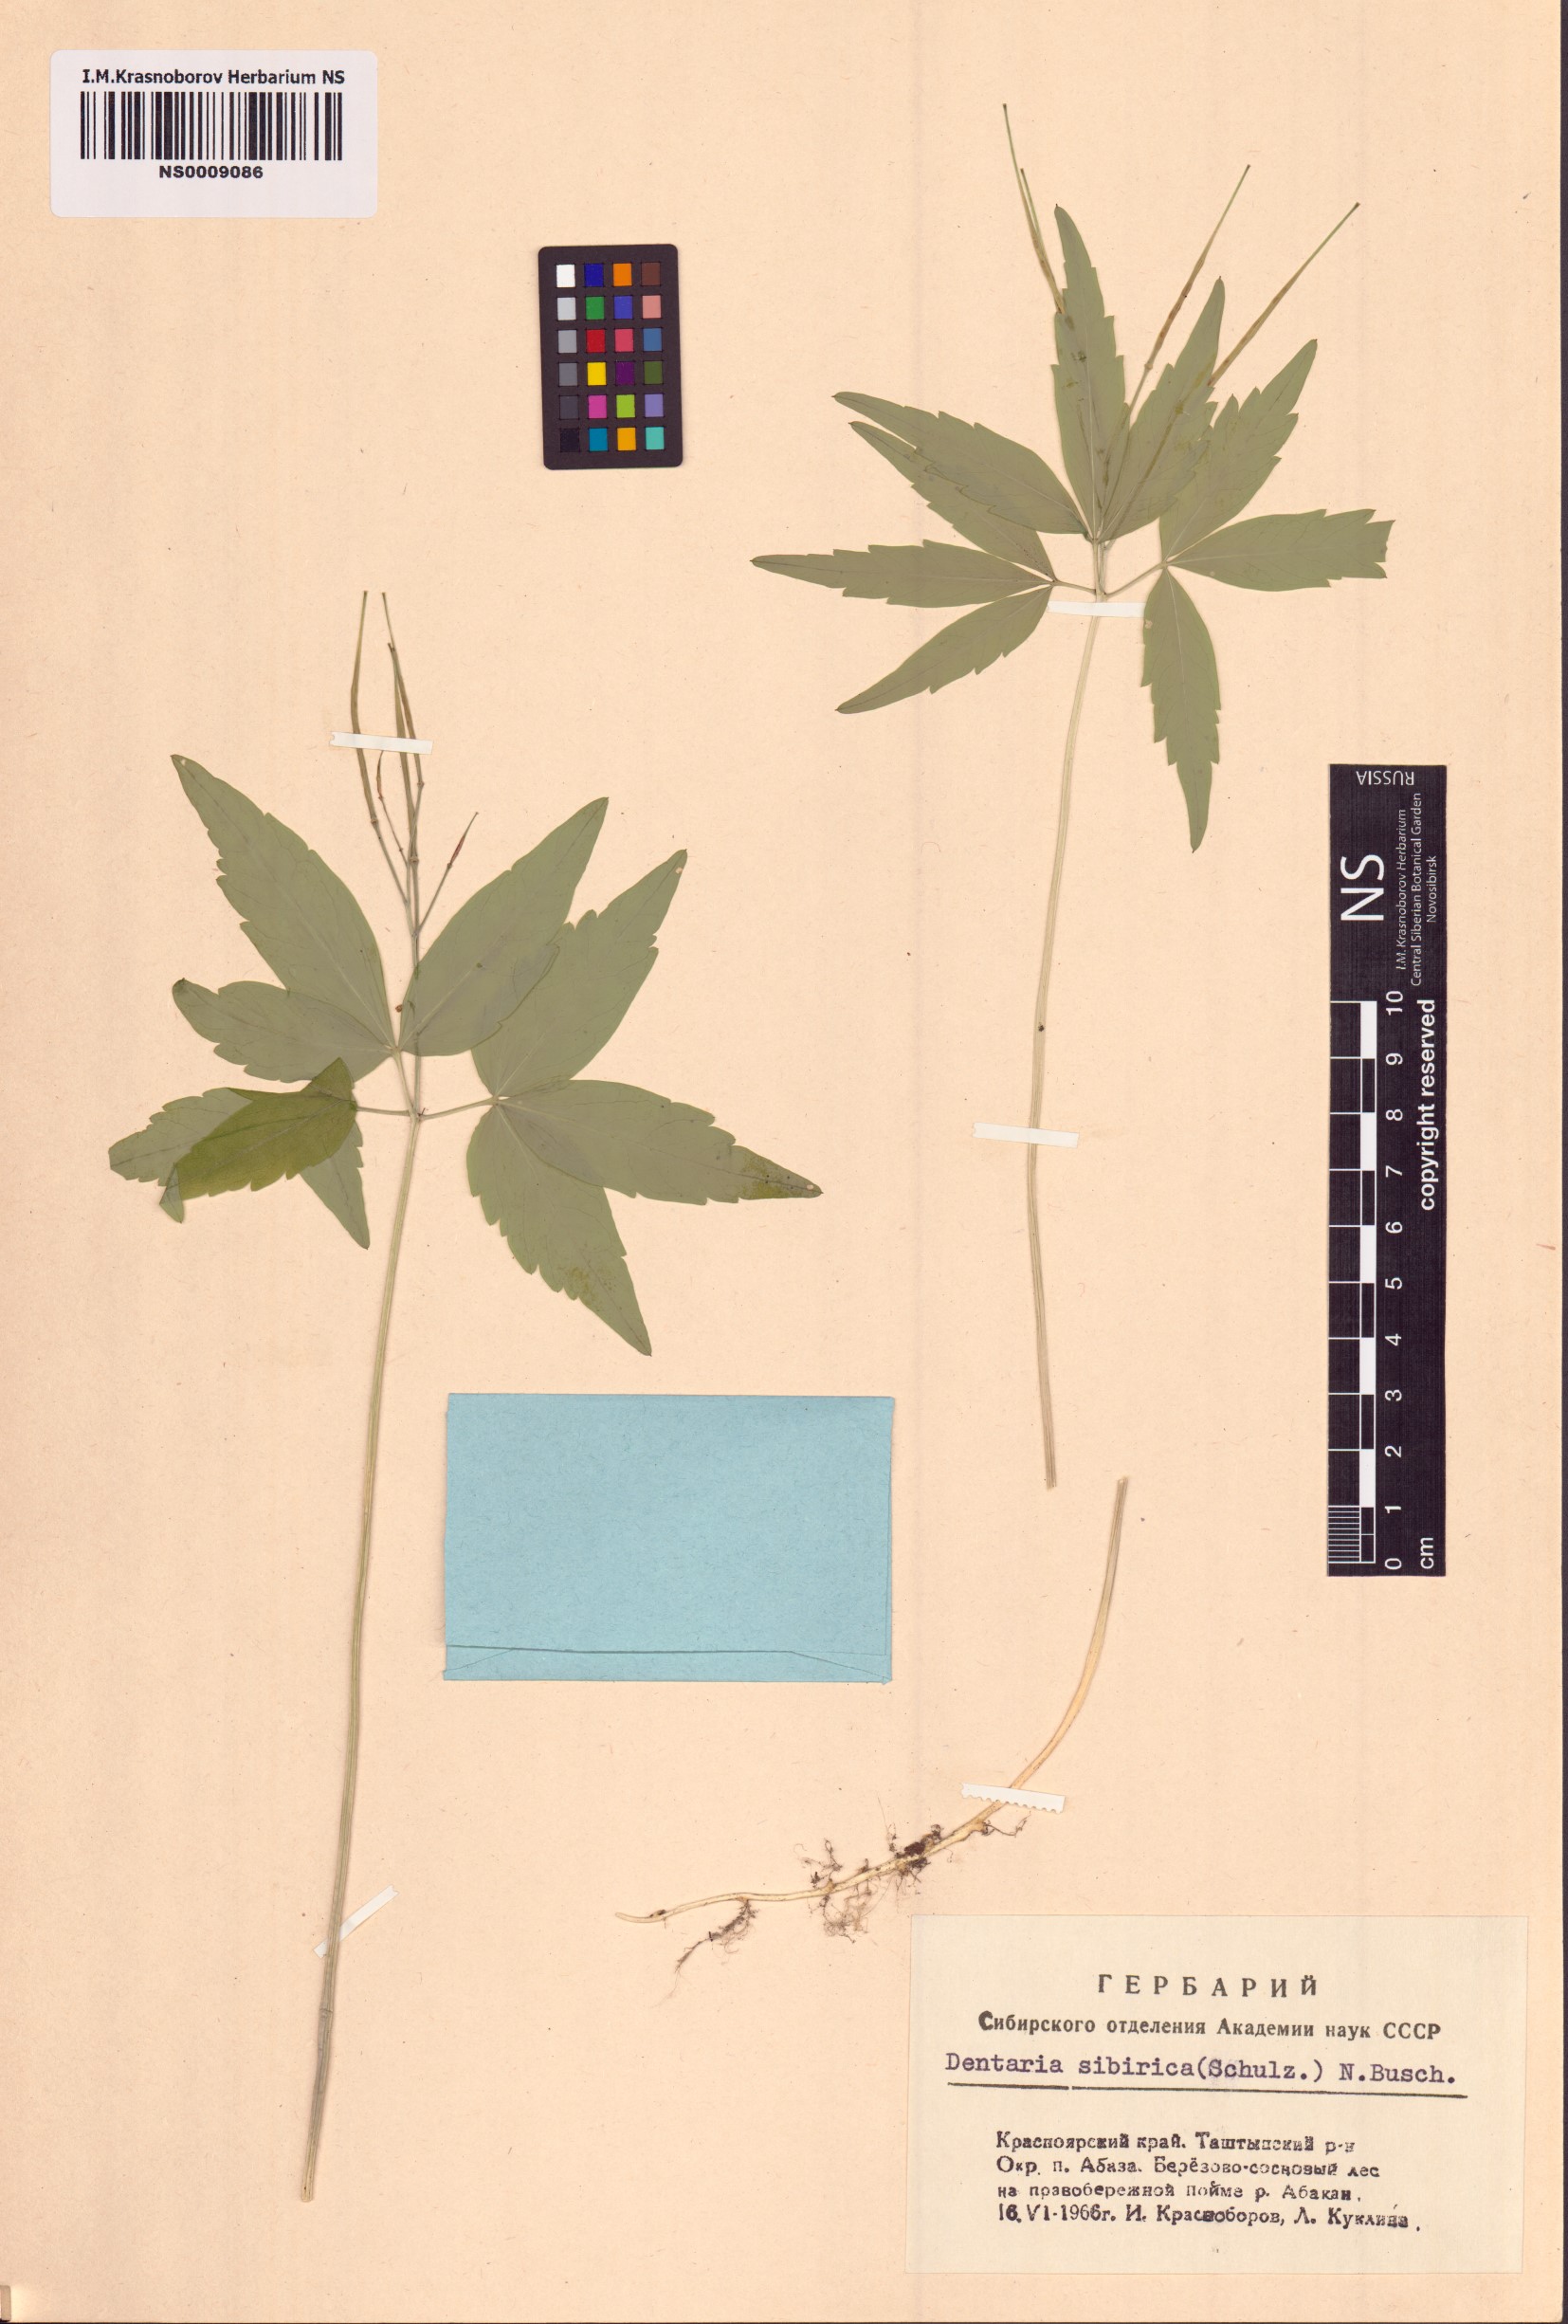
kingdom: Plantae
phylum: Tracheophyta
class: Magnoliopsida
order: Brassicales
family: Brassicaceae
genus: Cardamine
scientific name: Cardamine glanduligera
